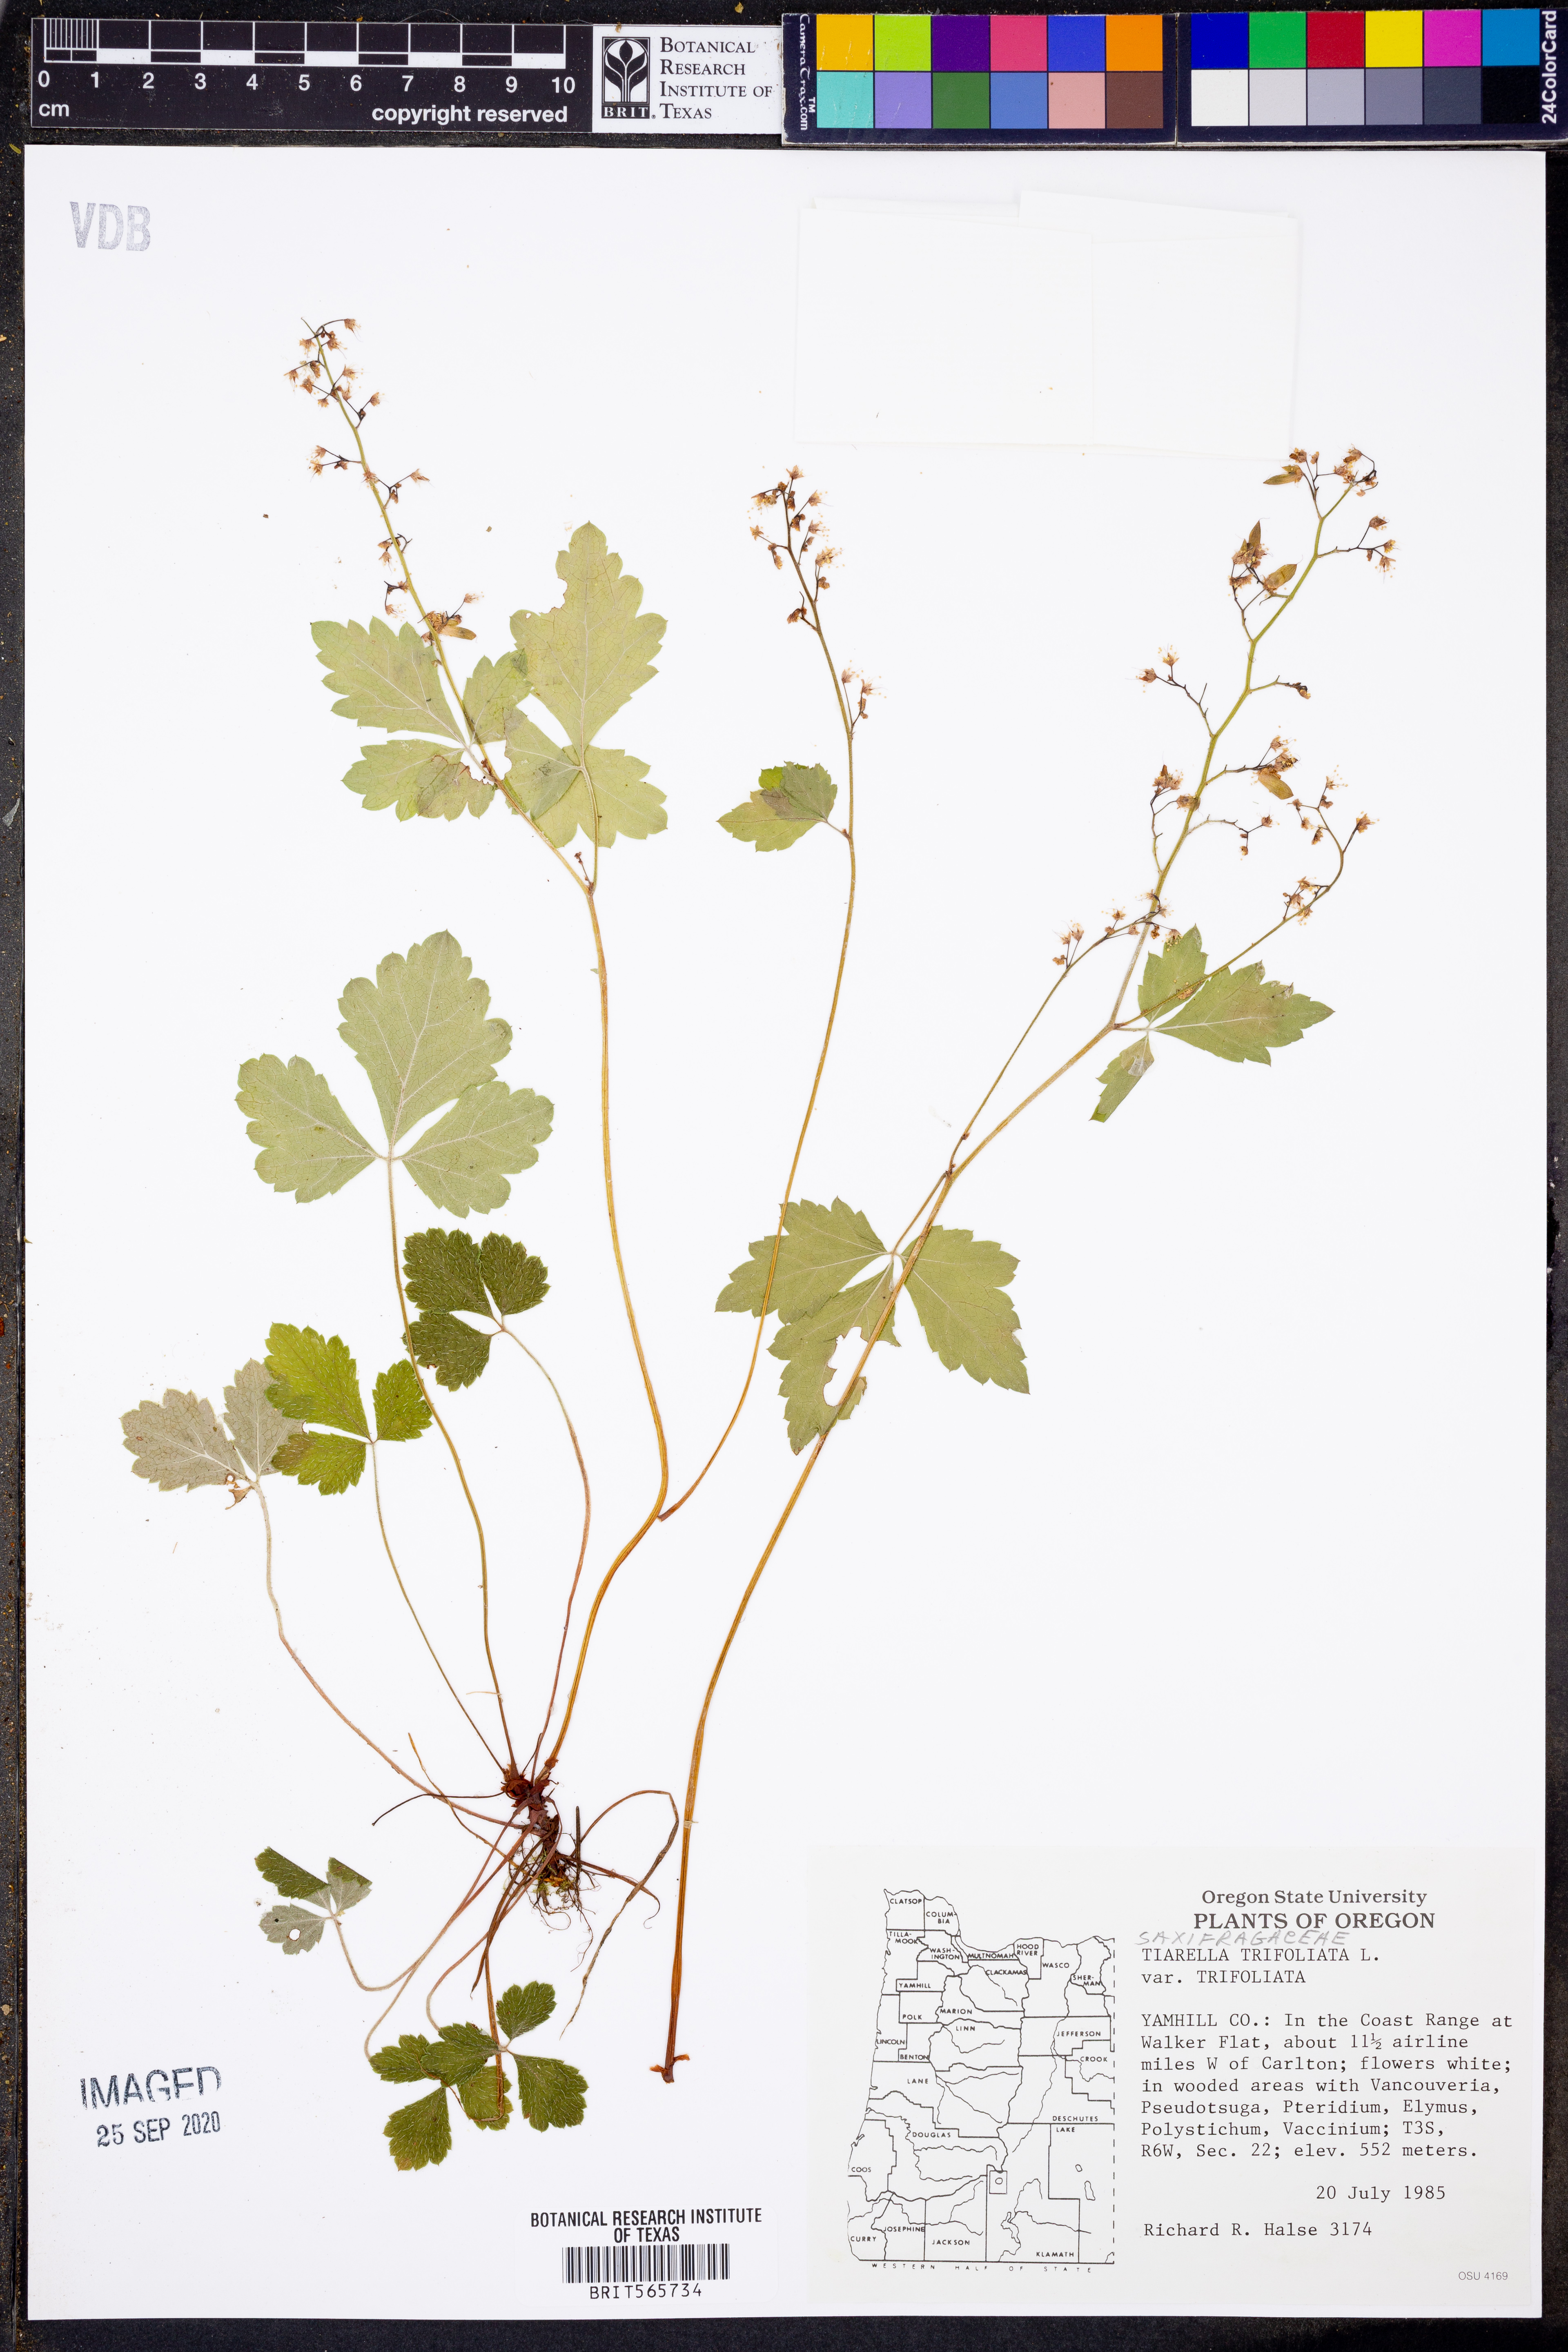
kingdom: Plantae
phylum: Tracheophyta
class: Magnoliopsida
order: Saxifragales
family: Saxifragaceae
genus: Tiarella
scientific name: Tiarella trifoliata
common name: Sugar-scoop
